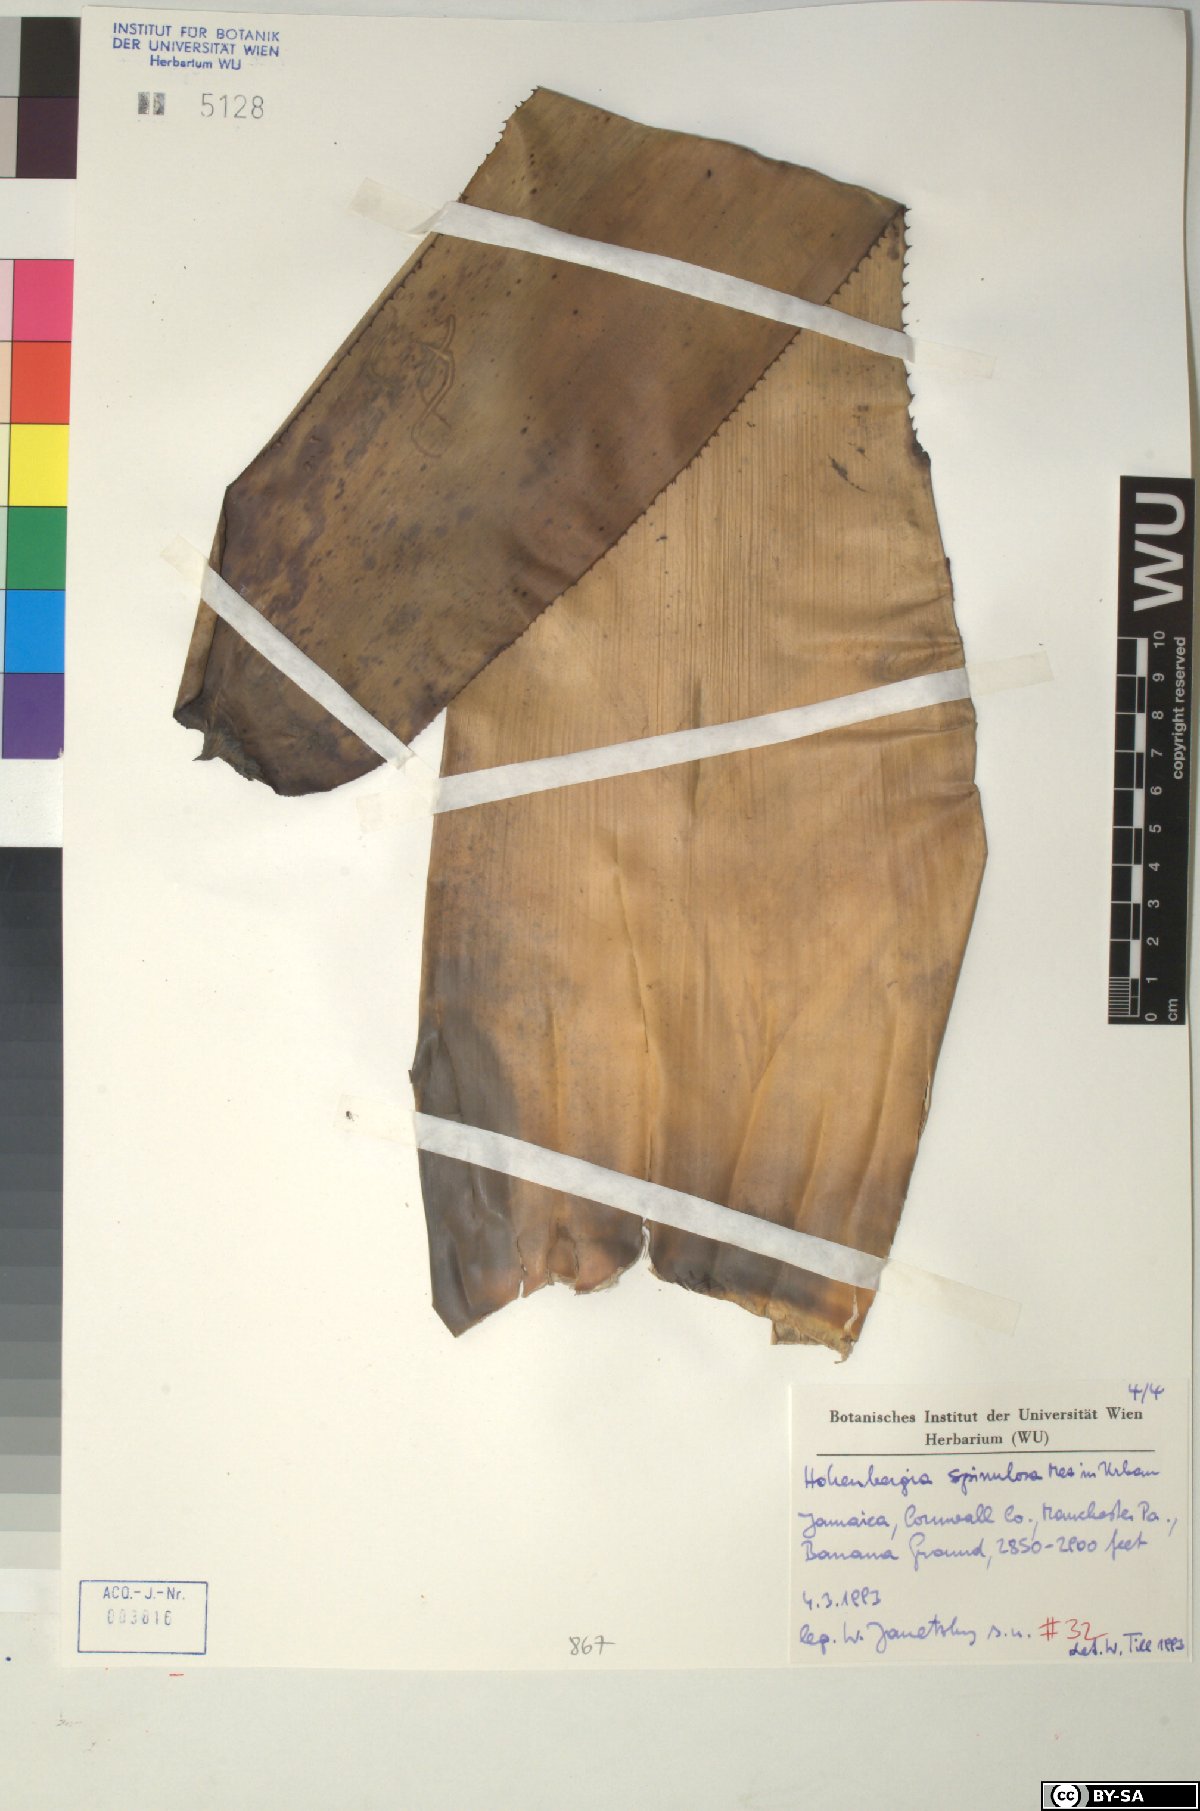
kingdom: Plantae
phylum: Tracheophyta
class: Liliopsida
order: Poales
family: Bromeliaceae
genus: Wittmackia
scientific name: Wittmackia spinulosa
